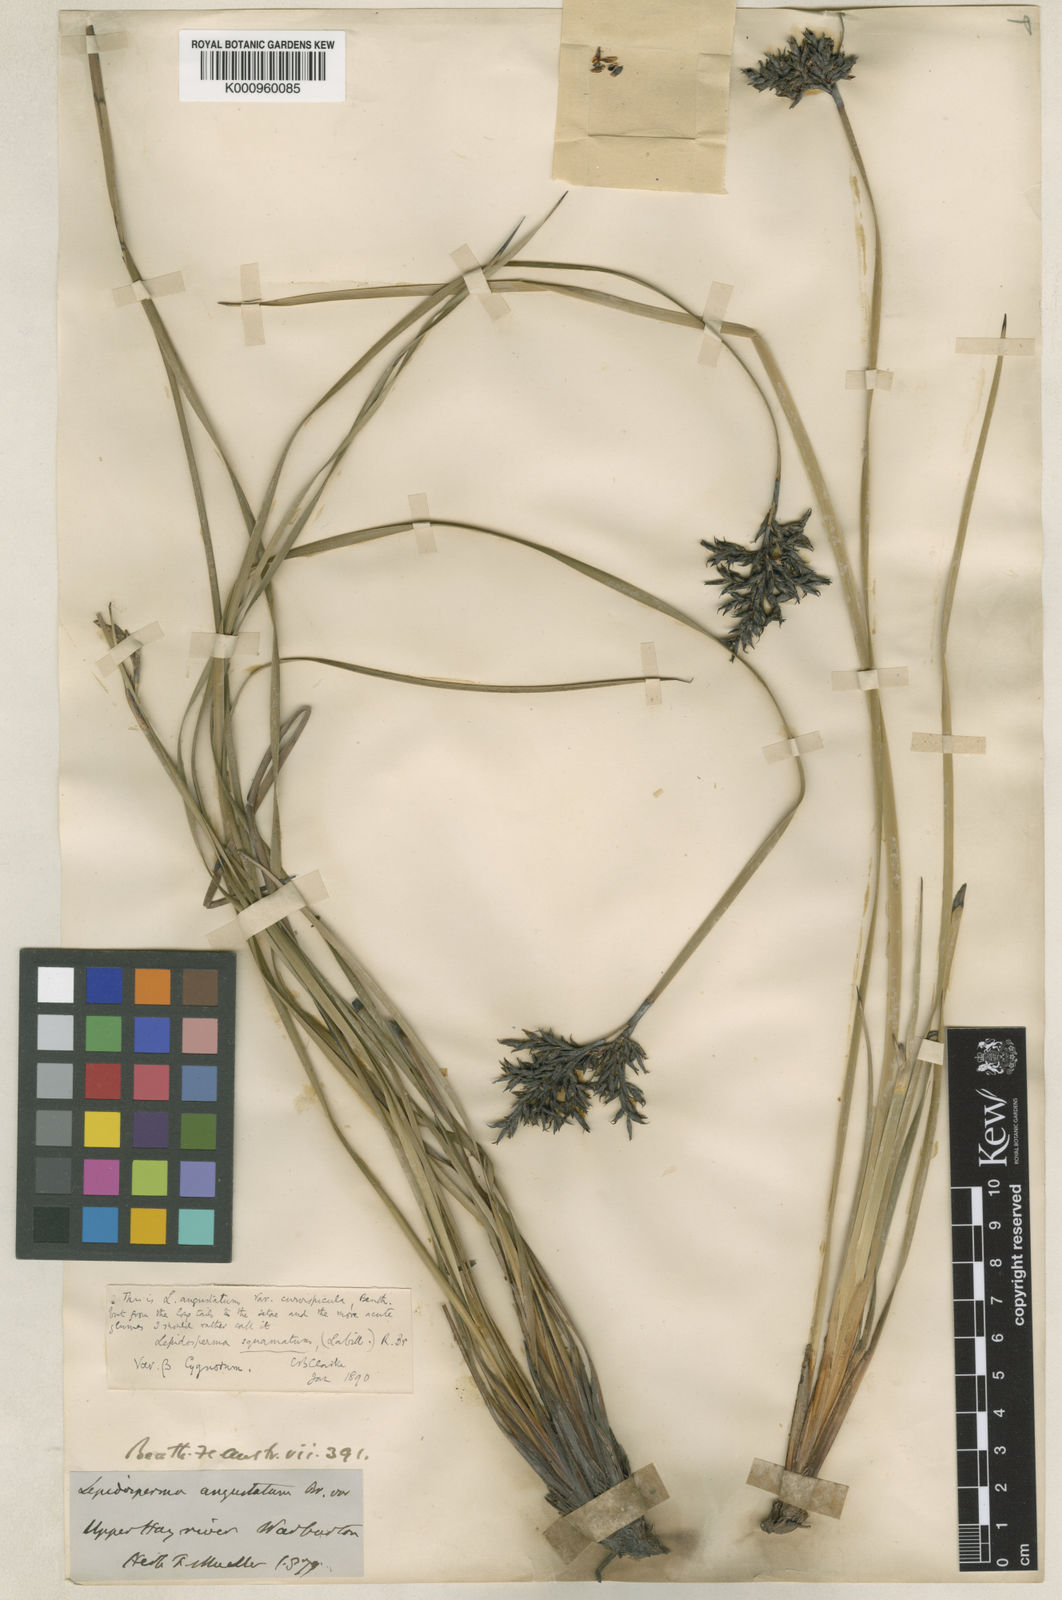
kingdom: Plantae
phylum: Tracheophyta
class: Liliopsida
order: Poales
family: Cyperaceae
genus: Lepidosperma
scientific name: Lepidosperma angustatum
